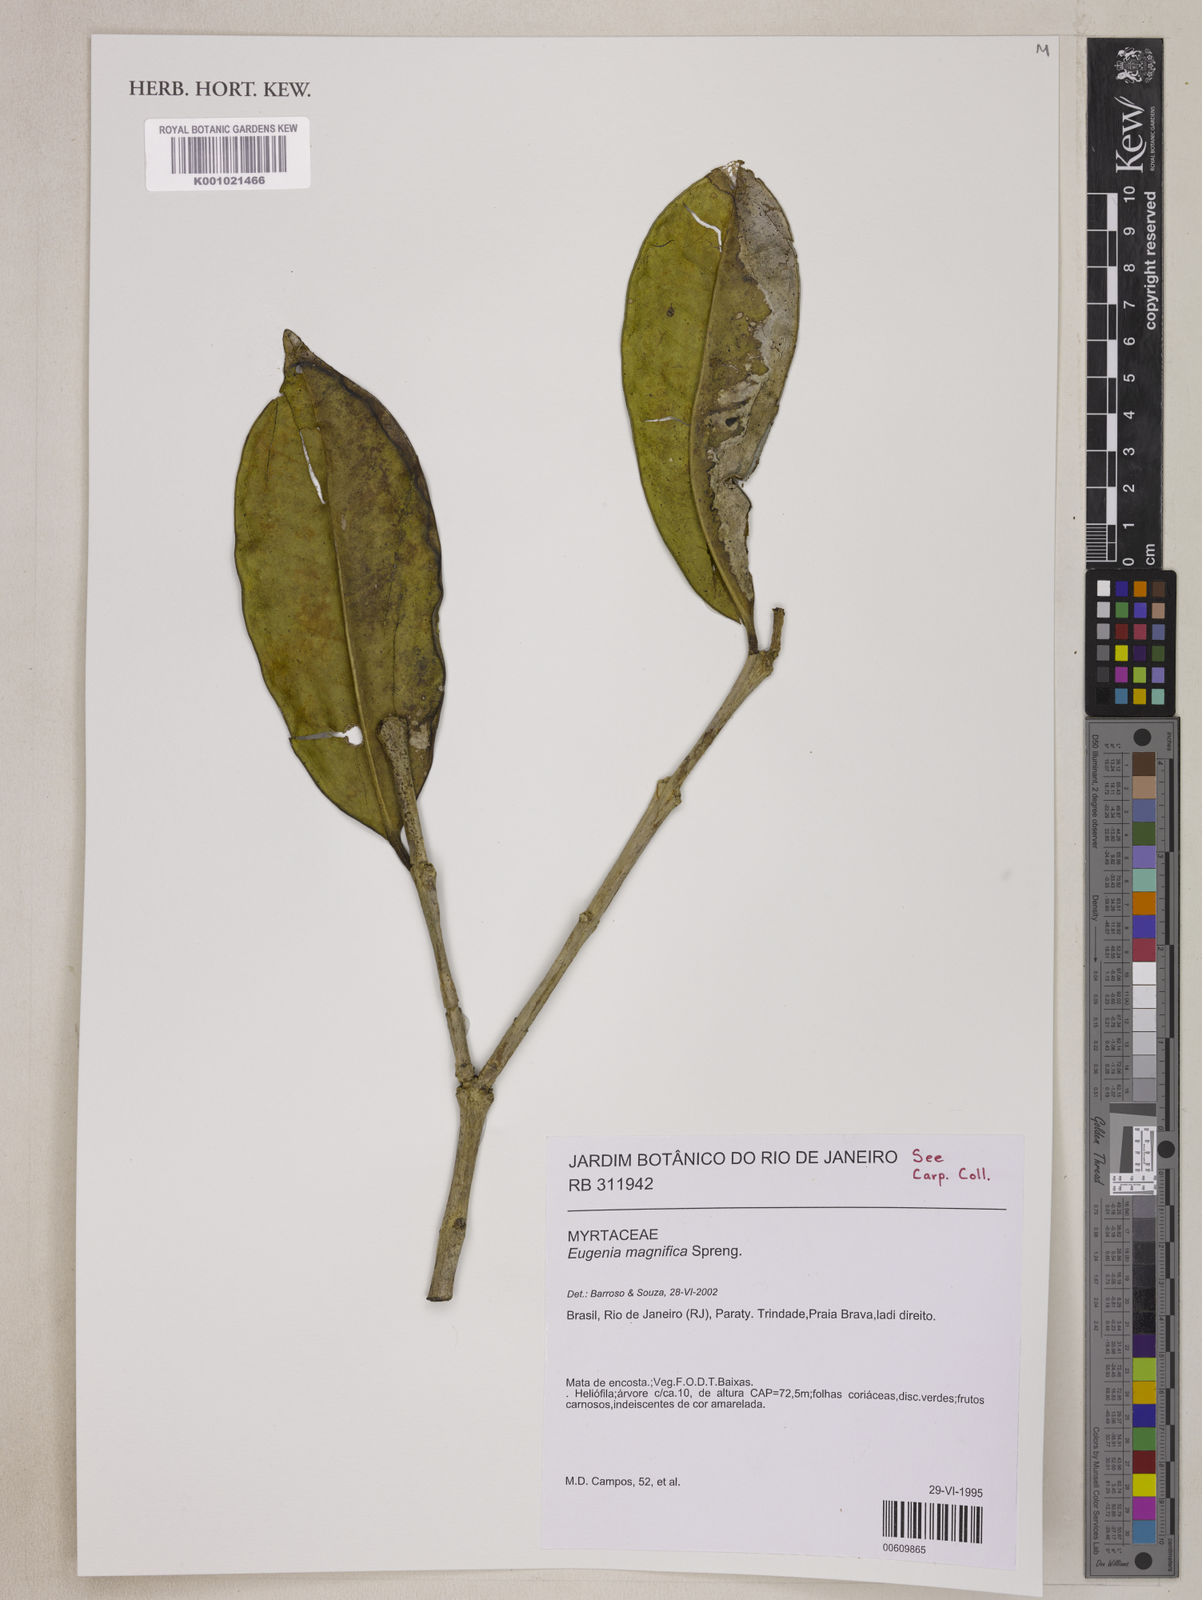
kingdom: Plantae
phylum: Tracheophyta
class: Magnoliopsida
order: Myrtales
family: Myrtaceae
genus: Eugenia
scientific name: Eugenia
